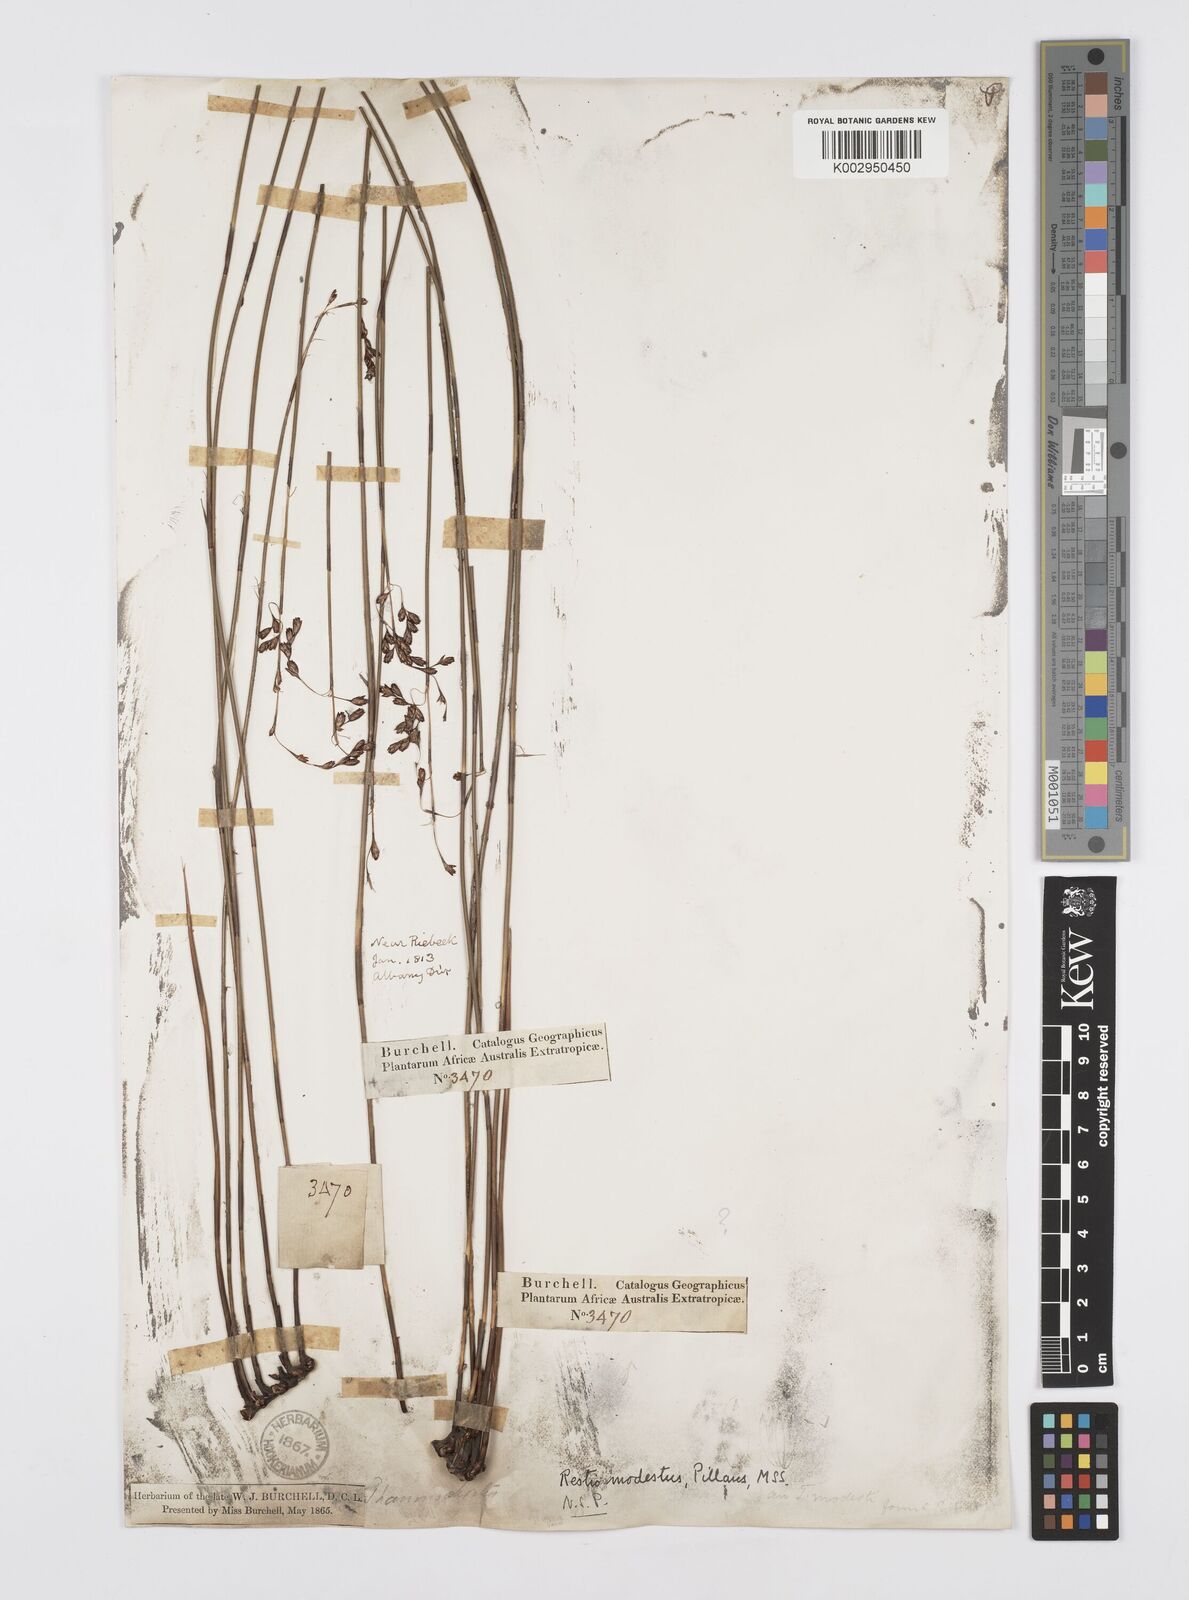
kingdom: Plantae
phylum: Tracheophyta
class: Liliopsida
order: Poales
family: Restionaceae
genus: Rhodocoma
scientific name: Rhodocoma fruticosa
